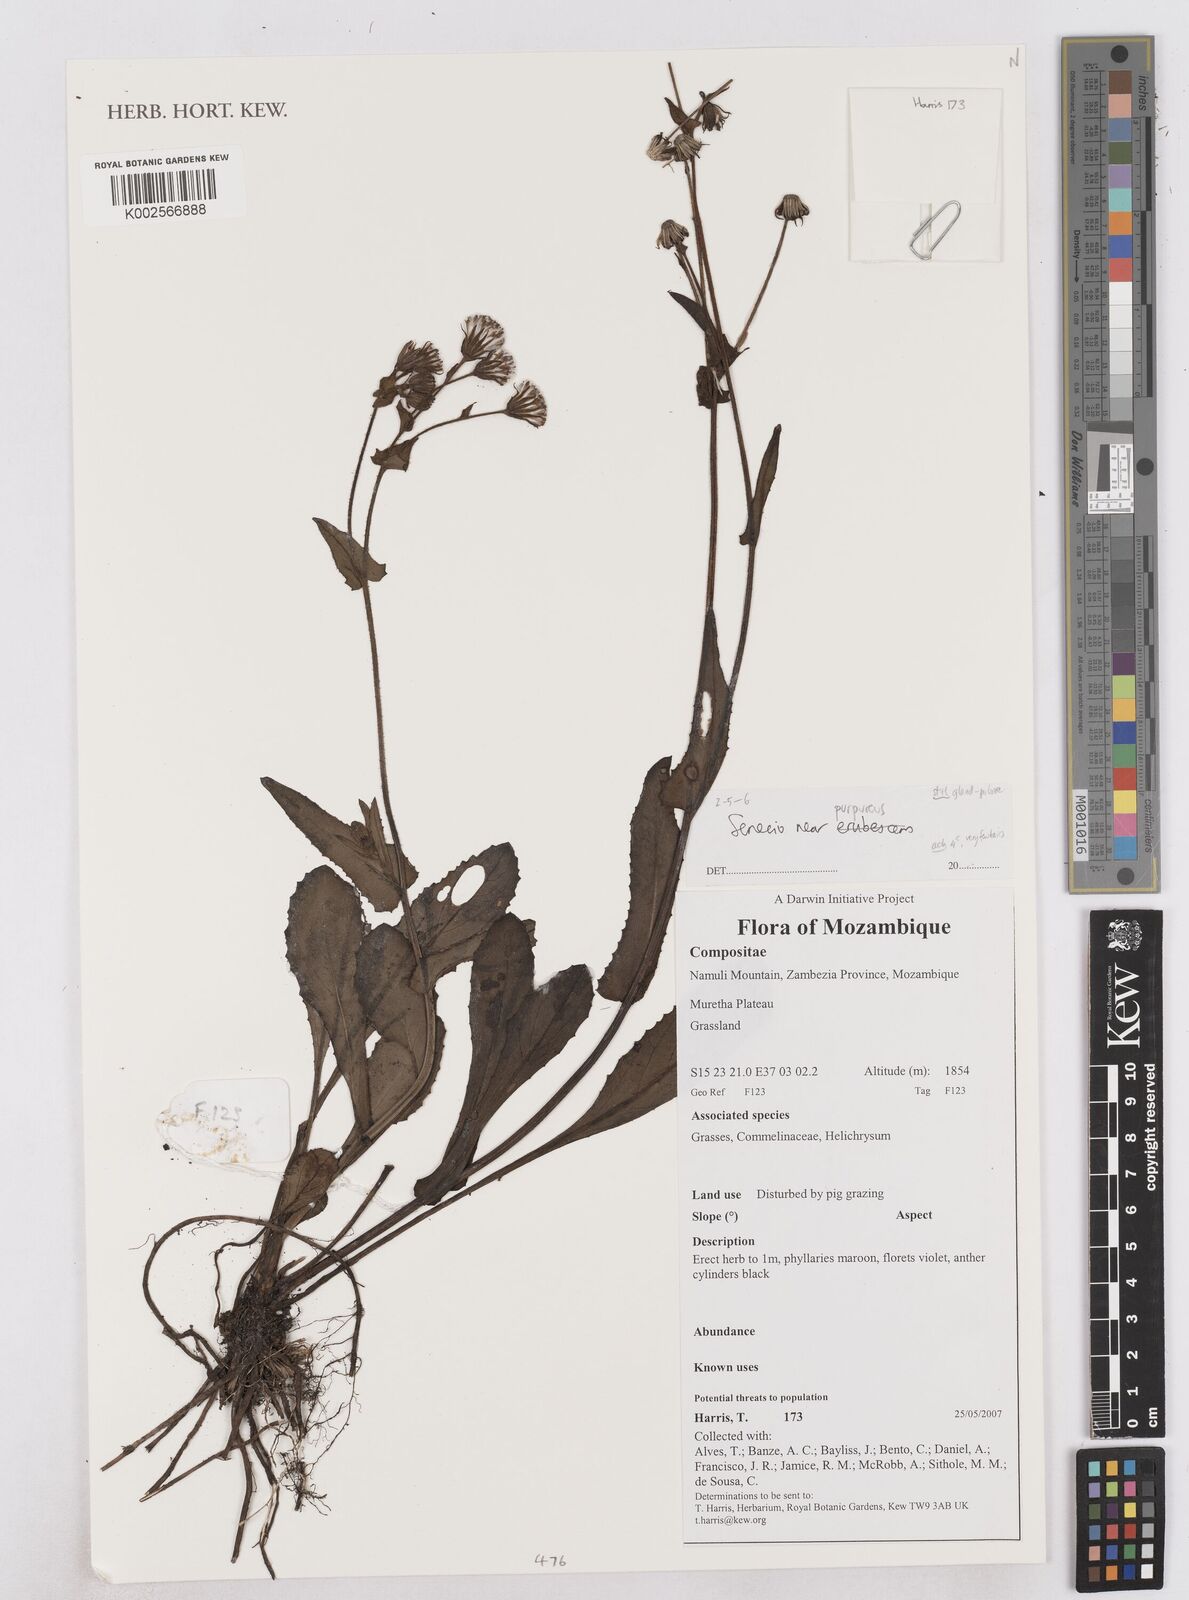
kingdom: Plantae
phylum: Tracheophyta
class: Magnoliopsida
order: Asterales
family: Asteraceae
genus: Senecio
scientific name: Senecio purpureus
